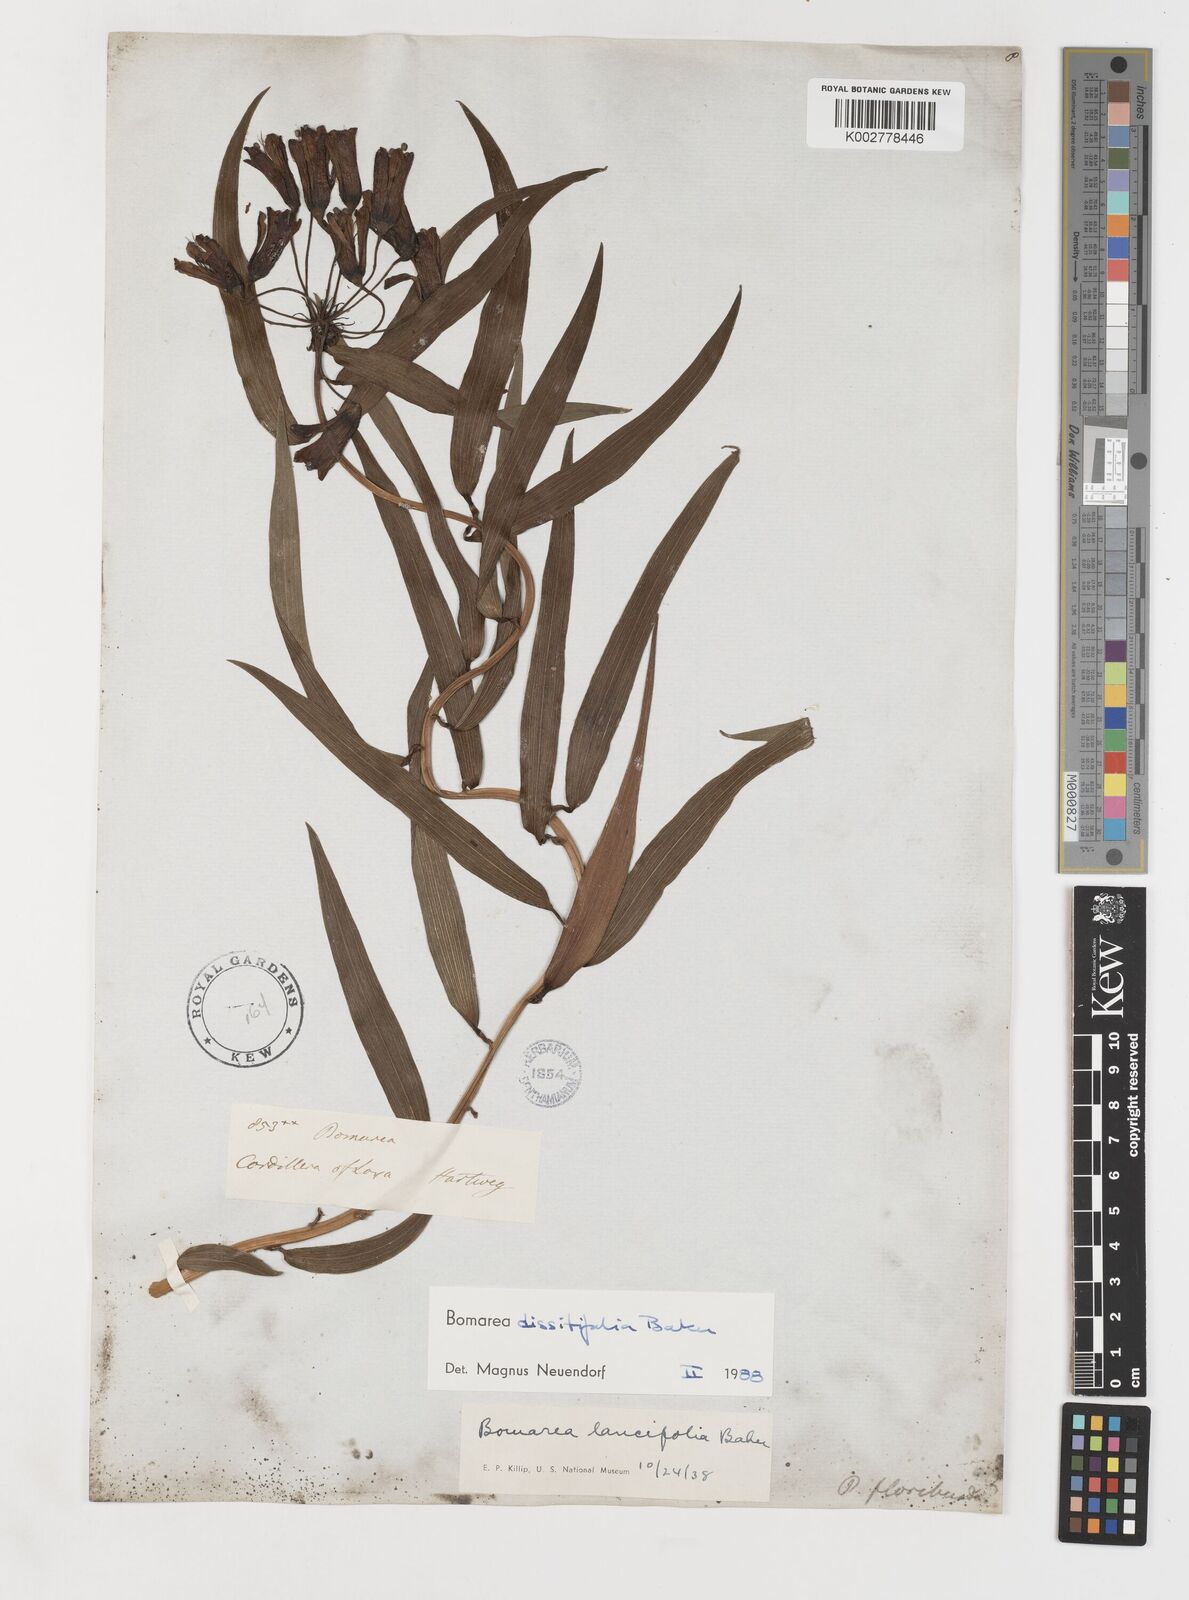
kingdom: Plantae
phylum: Tracheophyta
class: Liliopsida
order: Liliales
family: Alstroemeriaceae
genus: Bomarea
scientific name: Bomarea dissitifolia
